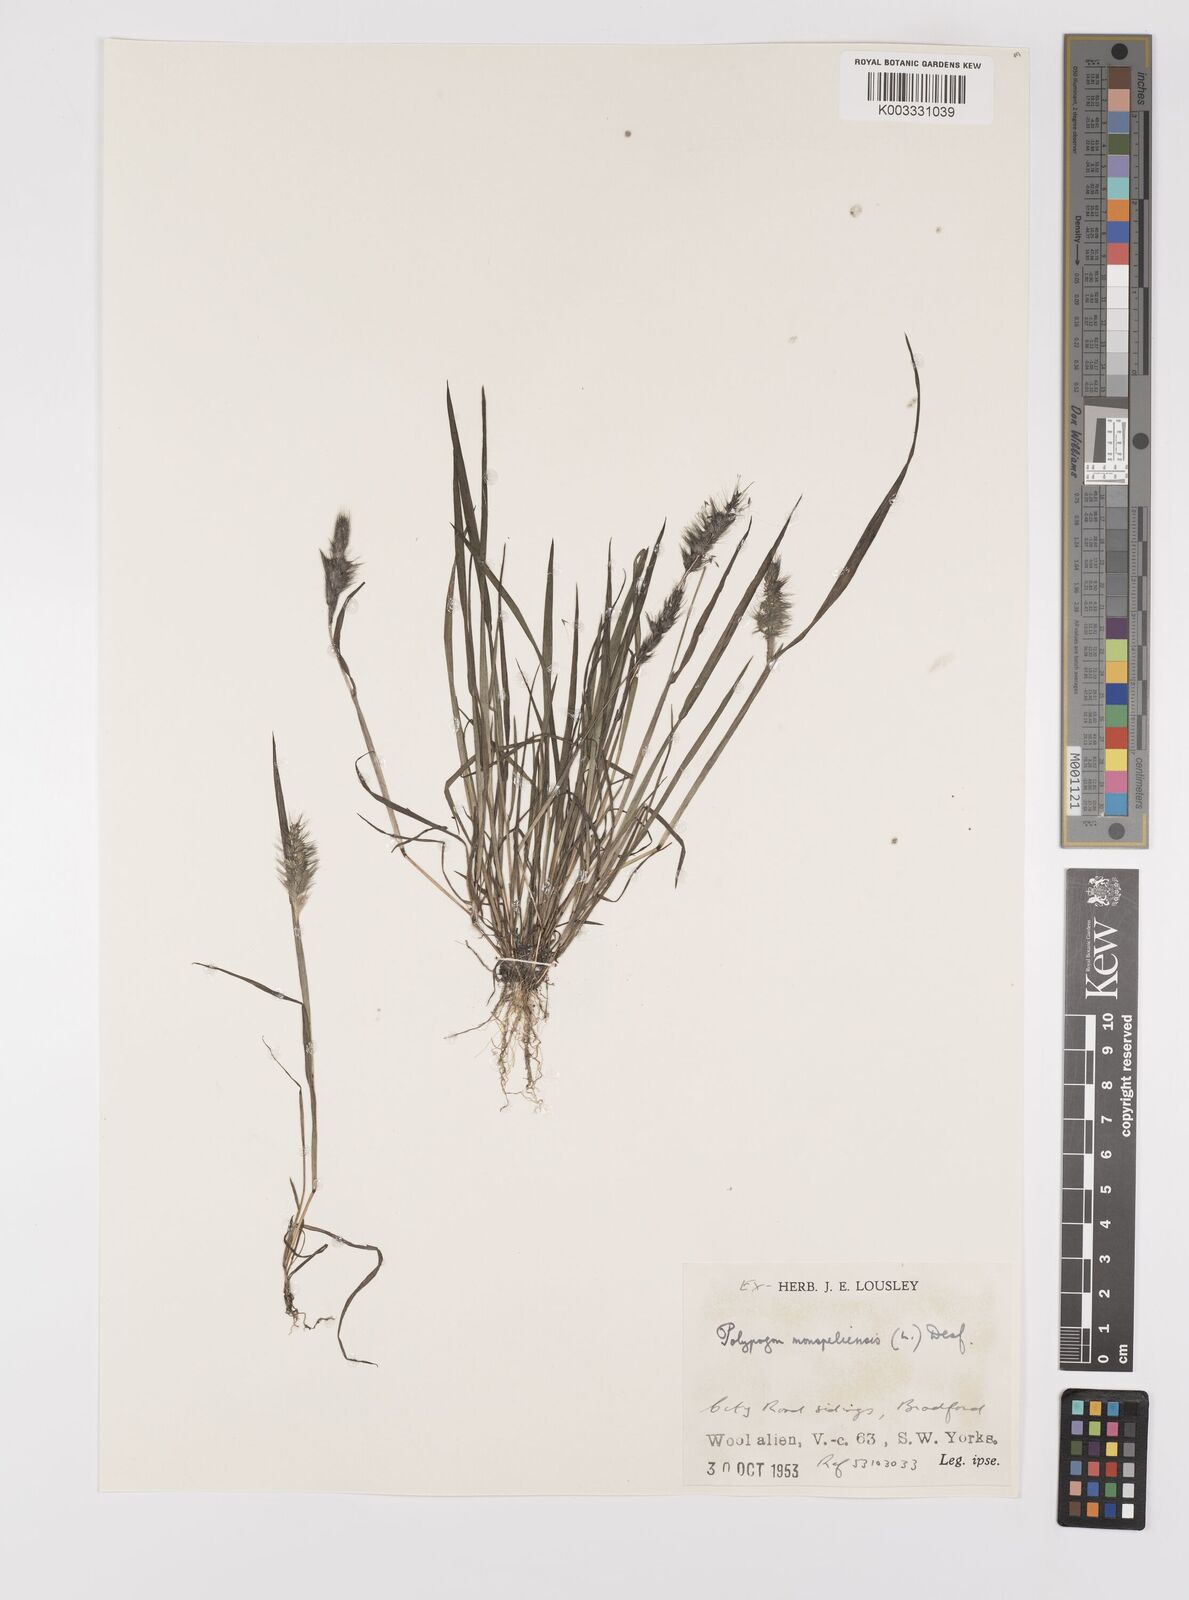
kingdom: Plantae
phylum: Tracheophyta
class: Liliopsida
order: Poales
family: Poaceae
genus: Polypogon
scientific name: Polypogon monspeliensis
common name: Annual rabbitsfoot grass
